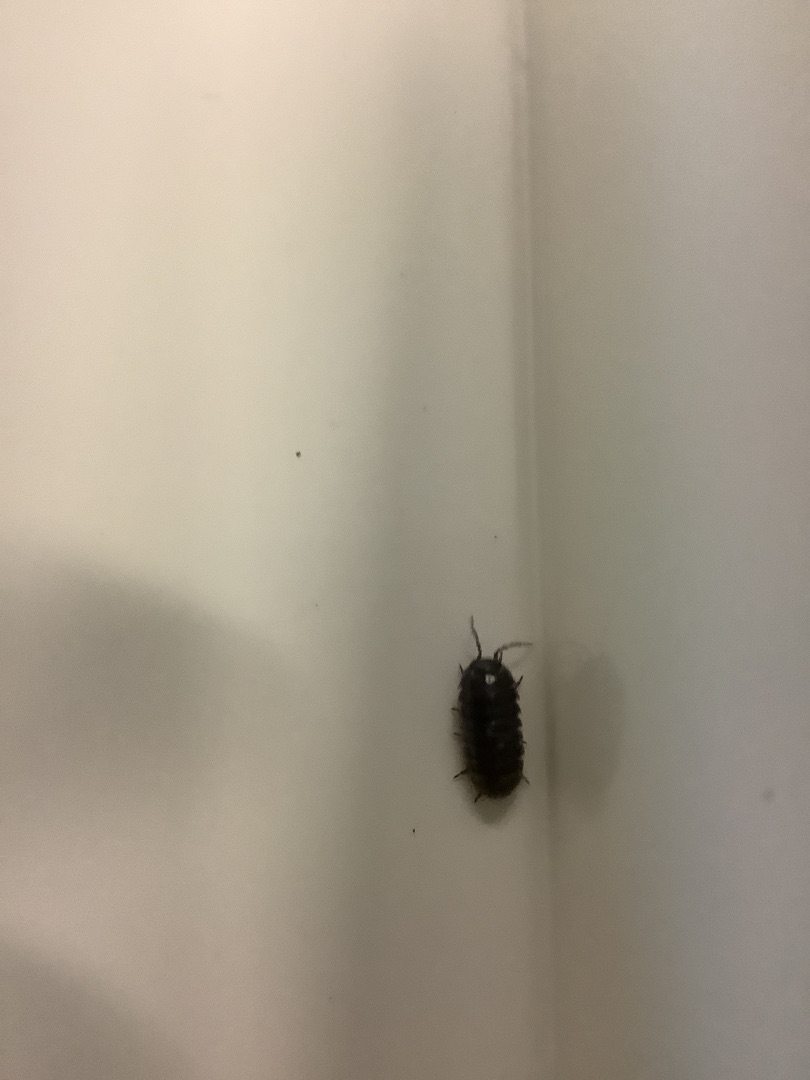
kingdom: Animalia
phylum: Arthropoda
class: Malacostraca
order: Isopoda
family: Armadillidiidae
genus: Armadillidium
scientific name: Armadillidium vulgare
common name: Almindelig kuglebænkebider
